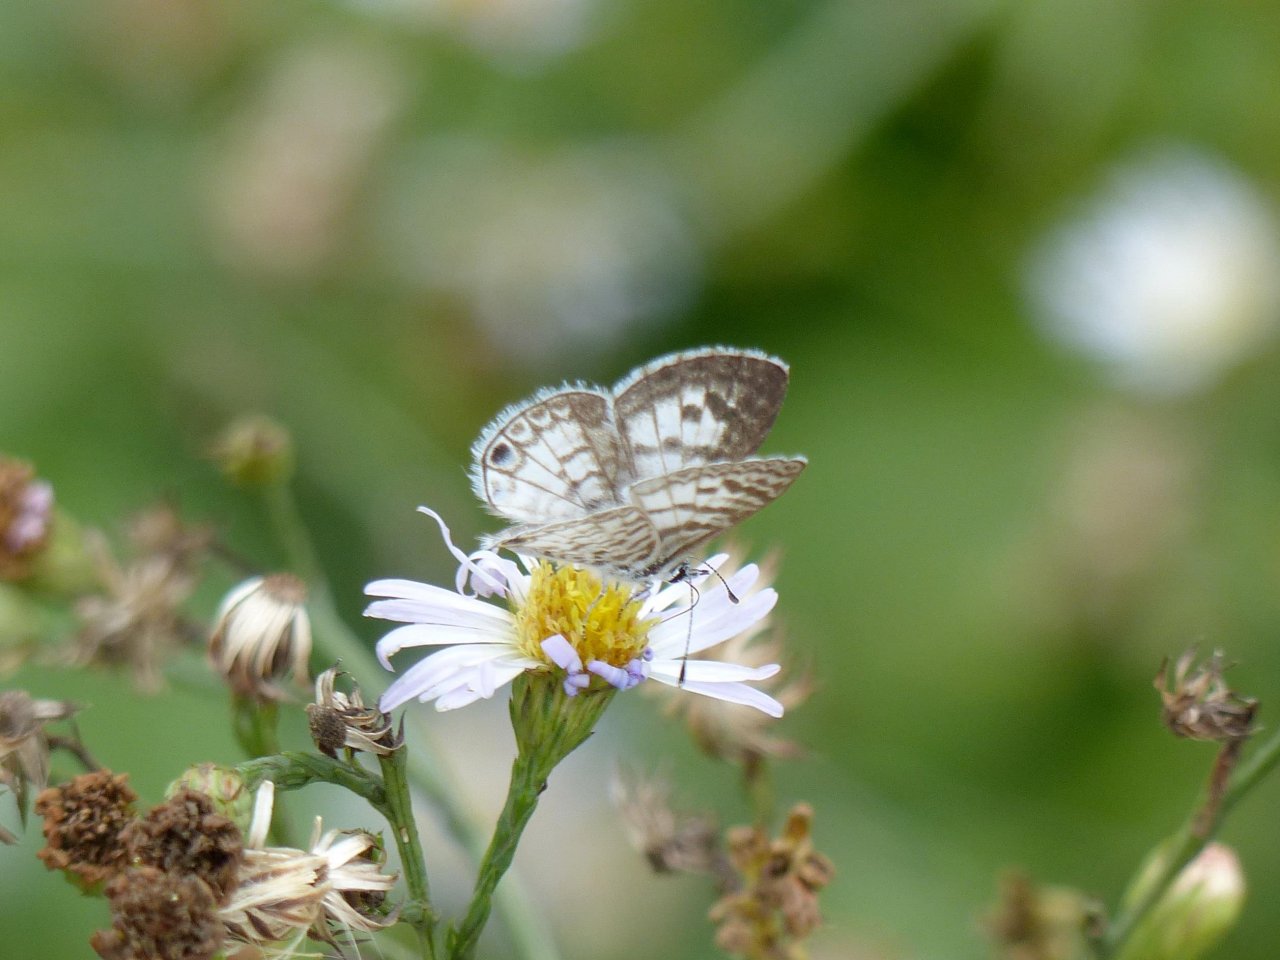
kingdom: Animalia
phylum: Arthropoda
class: Insecta
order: Lepidoptera
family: Lycaenidae
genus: Leptotes
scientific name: Leptotes cassius
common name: Cassius Blue
